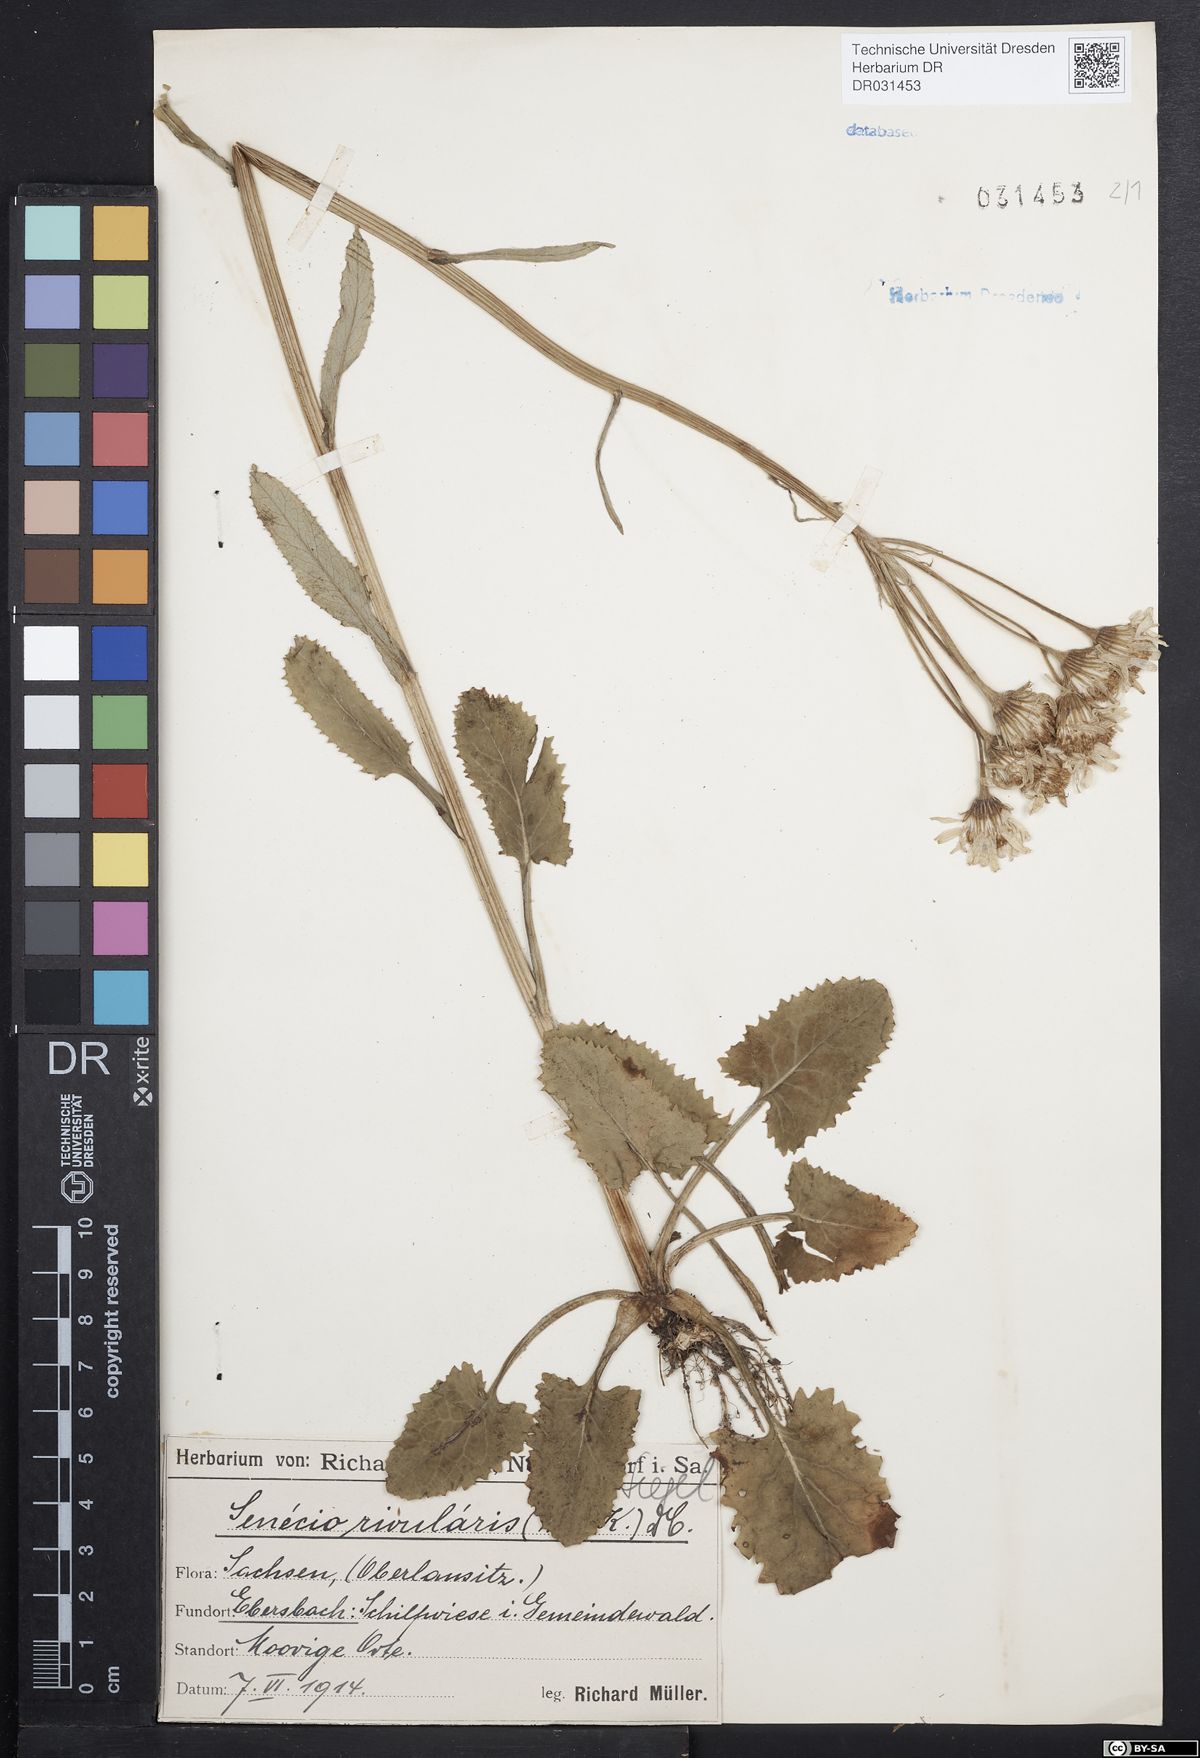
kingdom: Plantae
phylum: Tracheophyta
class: Magnoliopsida
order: Asterales
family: Asteraceae
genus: Tephroseris
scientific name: Tephroseris crispa
